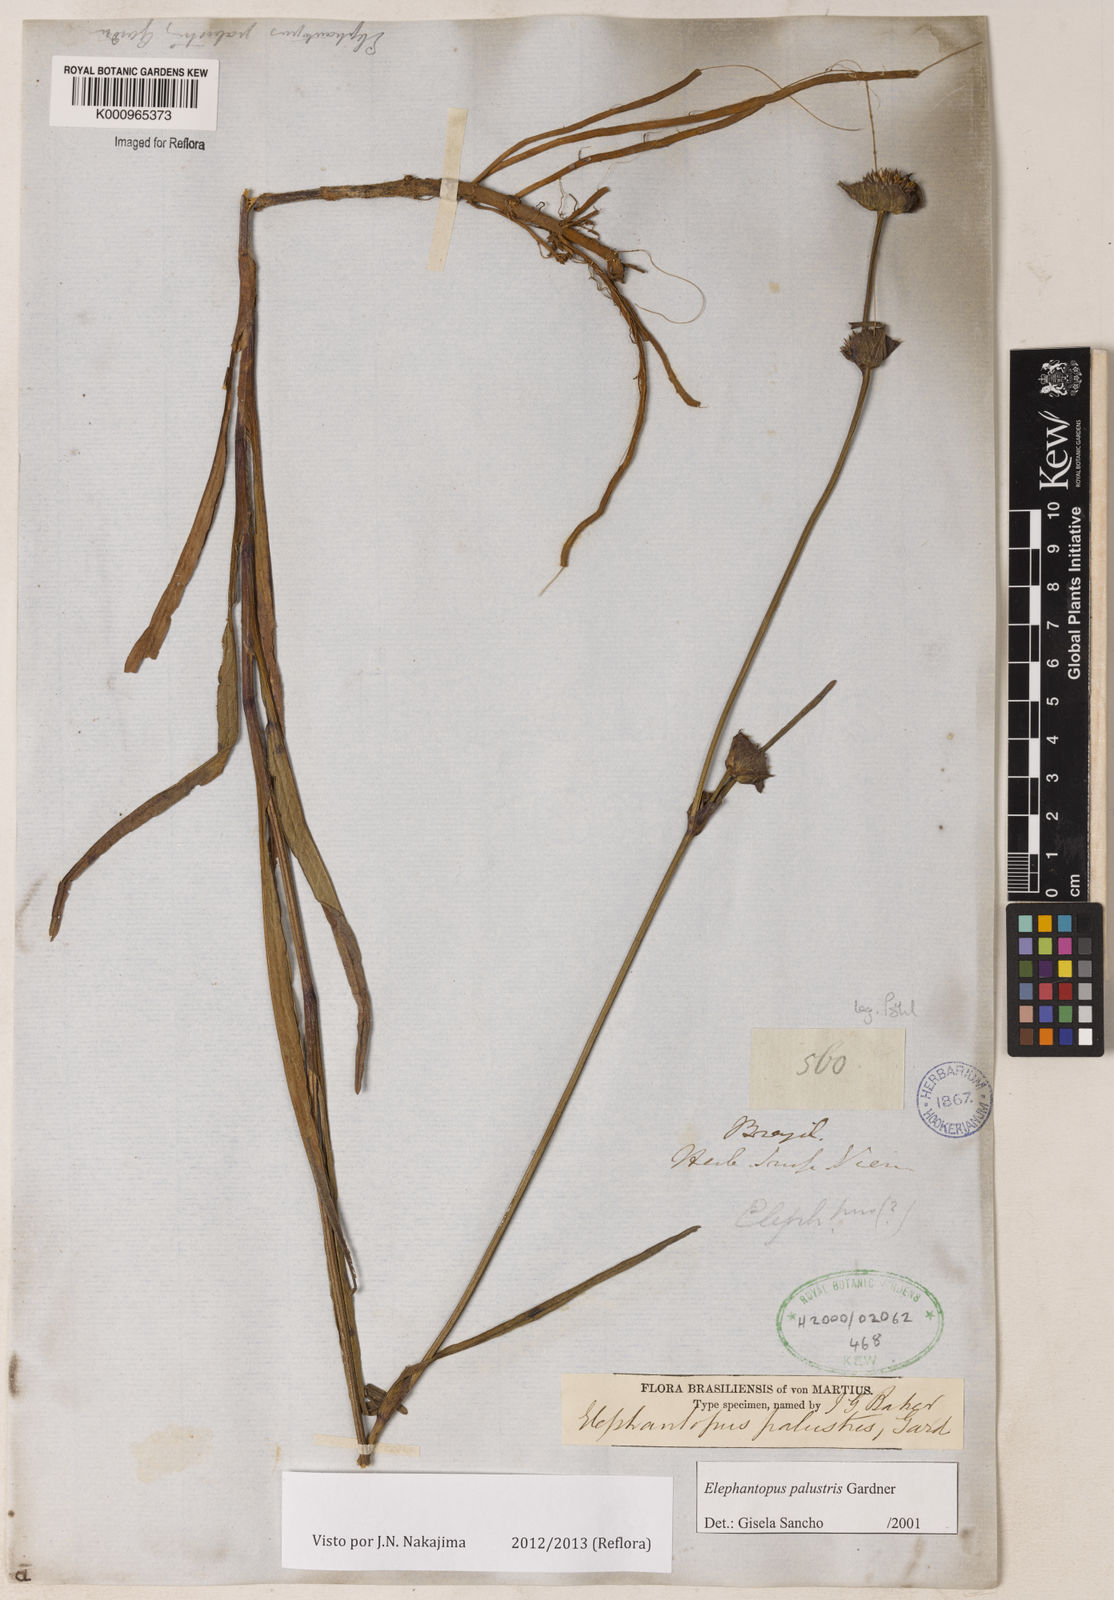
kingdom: Plantae
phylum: Tracheophyta
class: Magnoliopsida
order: Asterales
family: Asteraceae
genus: Elephantopus
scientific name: Elephantopus palustris
